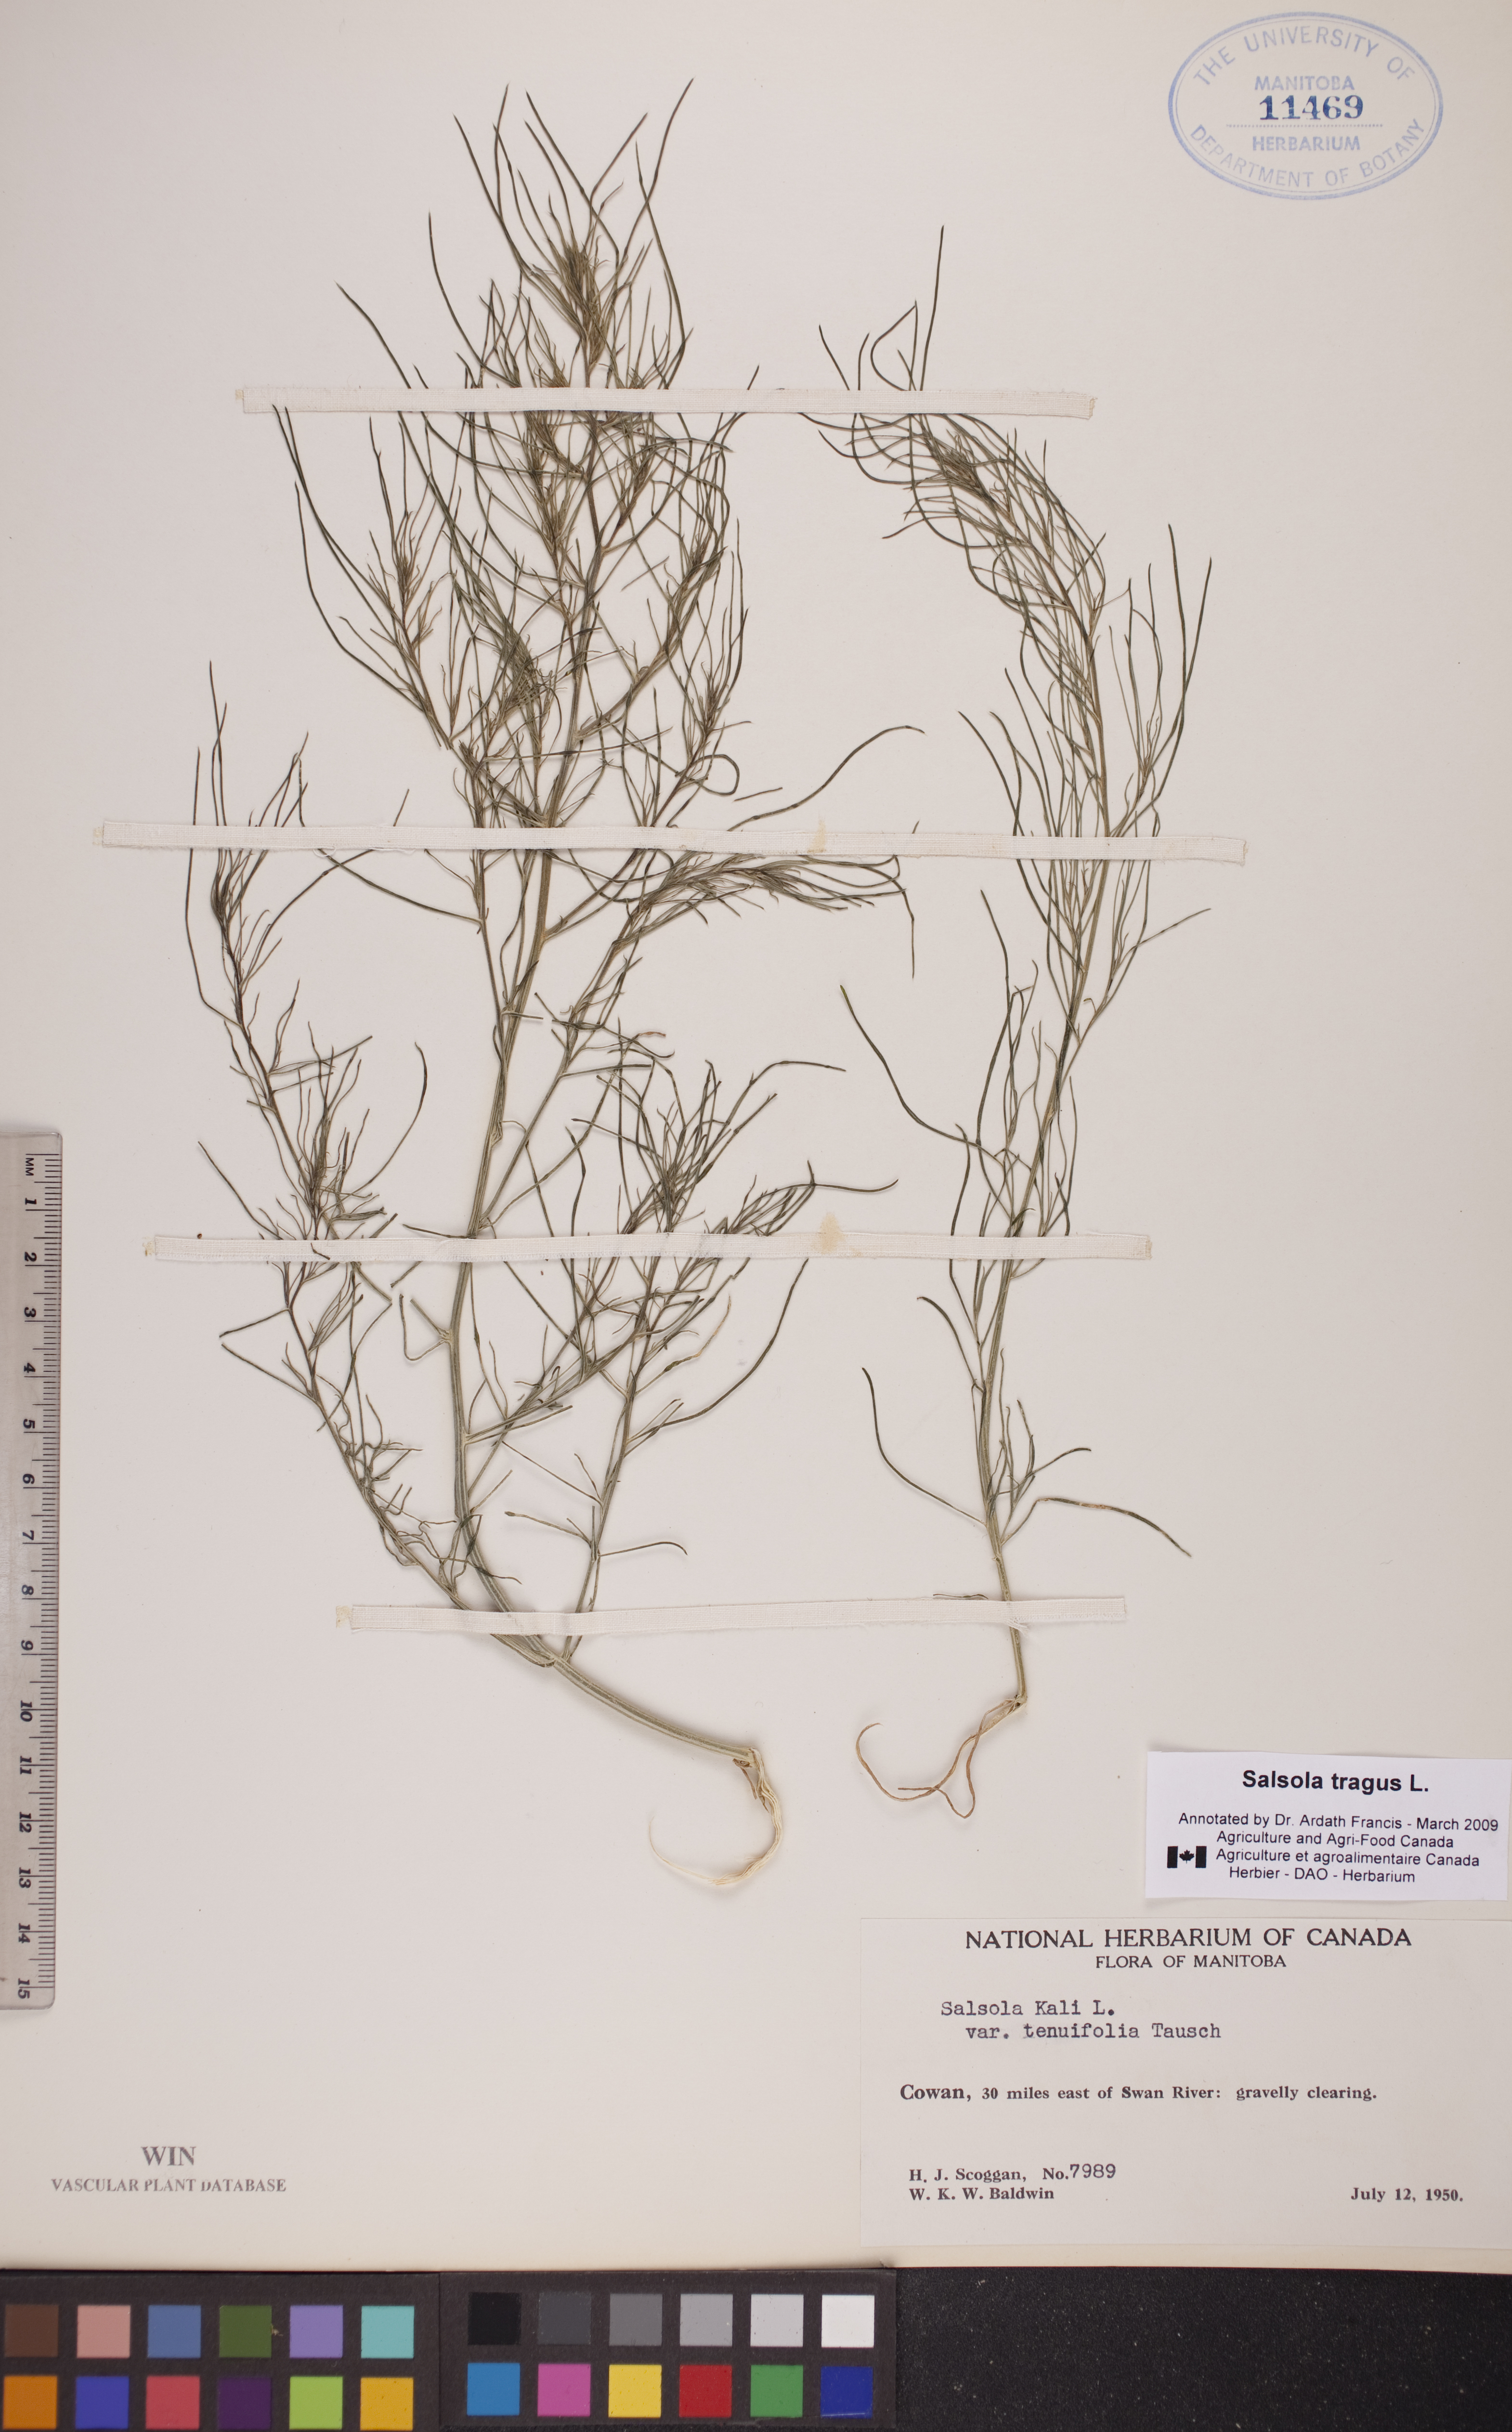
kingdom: Plantae
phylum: Tracheophyta
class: Magnoliopsida
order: Caryophyllales
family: Amaranthaceae
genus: Salsola
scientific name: Salsola tragus
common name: Prickly russian thistle
